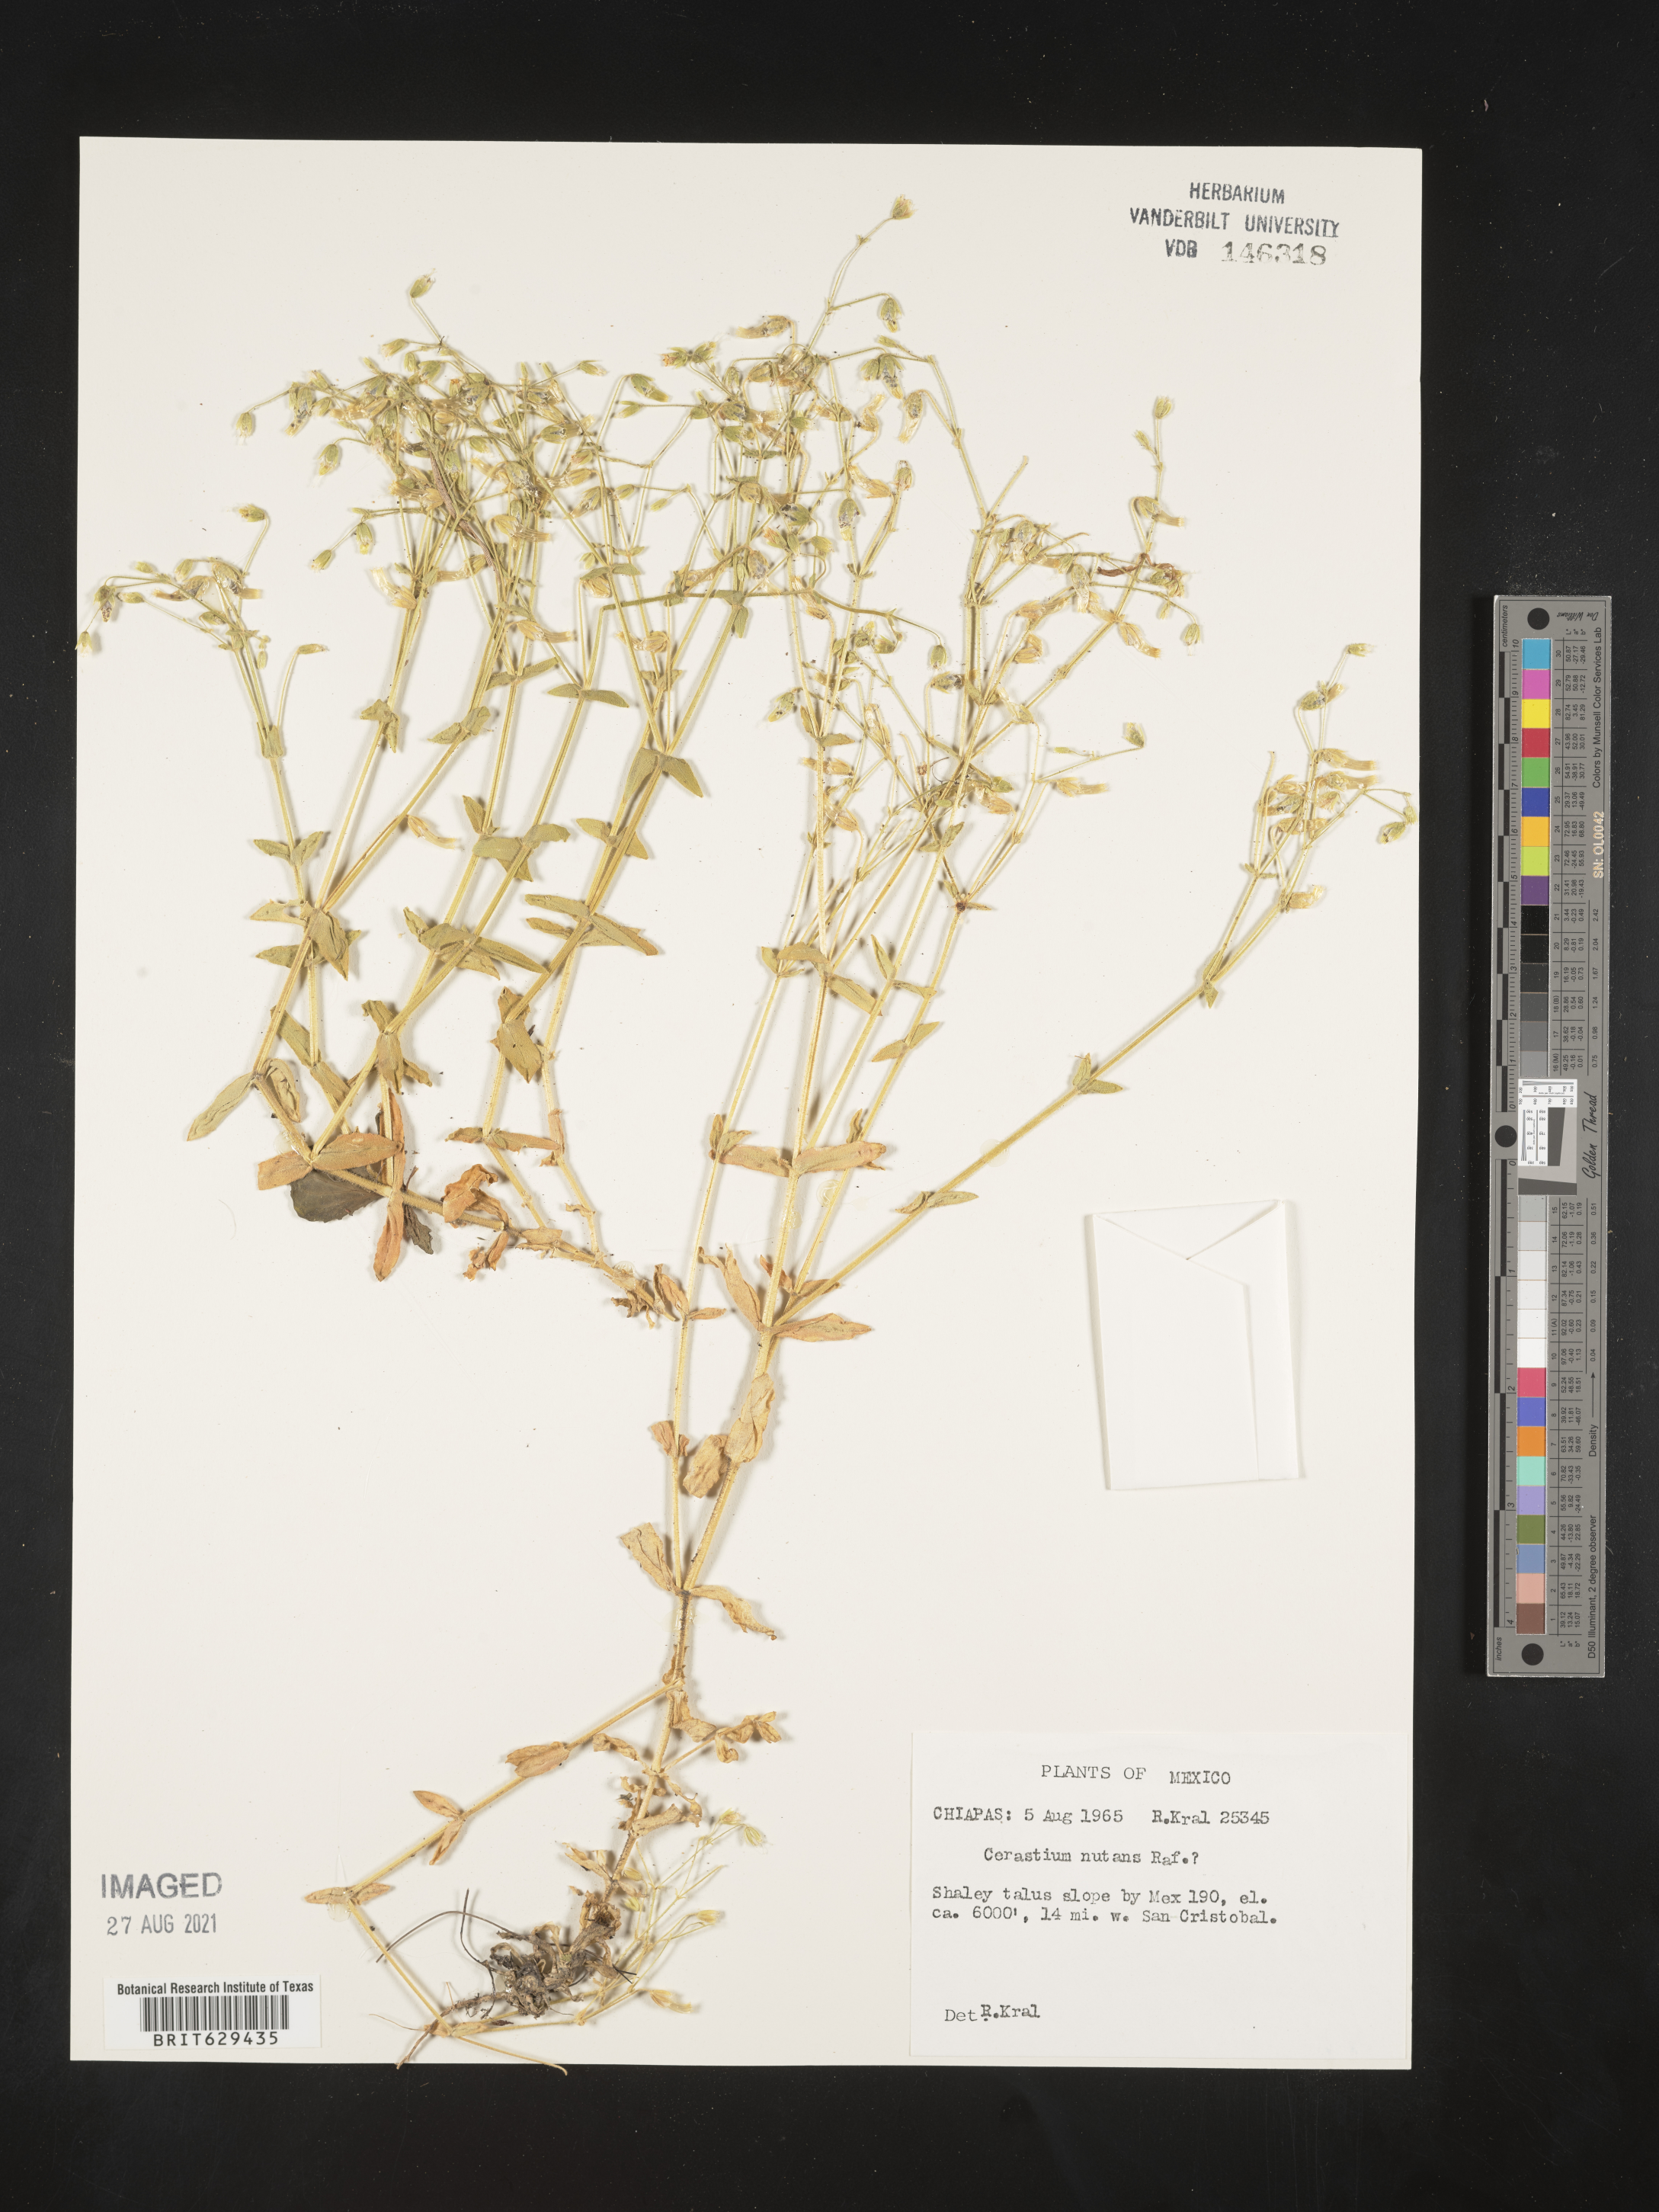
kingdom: Plantae
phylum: Tracheophyta
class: Magnoliopsida
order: Caryophyllales
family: Caryophyllaceae
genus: Cerastium
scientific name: Cerastium
